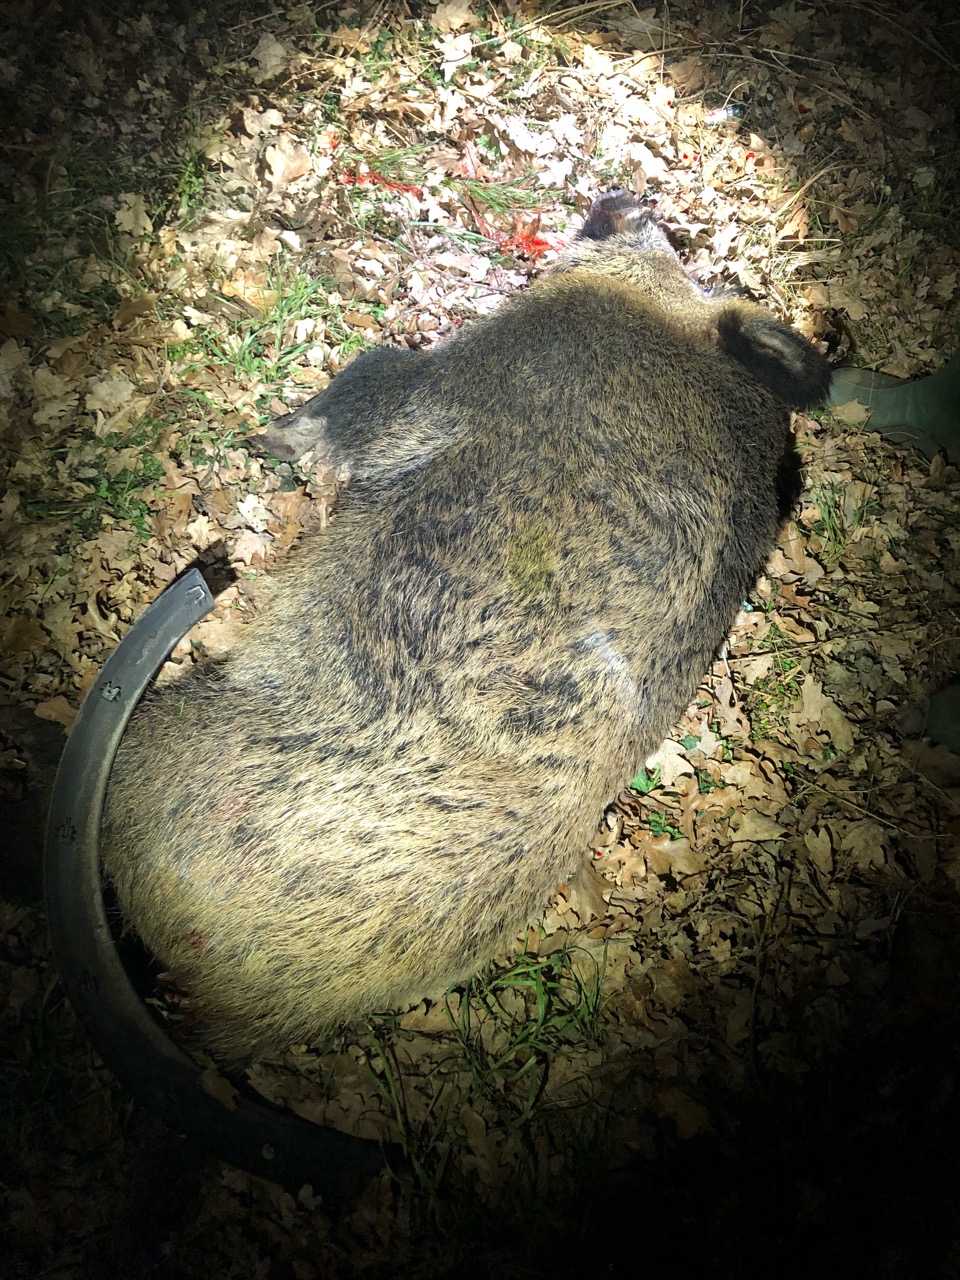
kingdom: Animalia
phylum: Chordata
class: Mammalia
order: Artiodactyla
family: Suidae
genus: Sus
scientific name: Sus scrofa
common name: Wild boar
